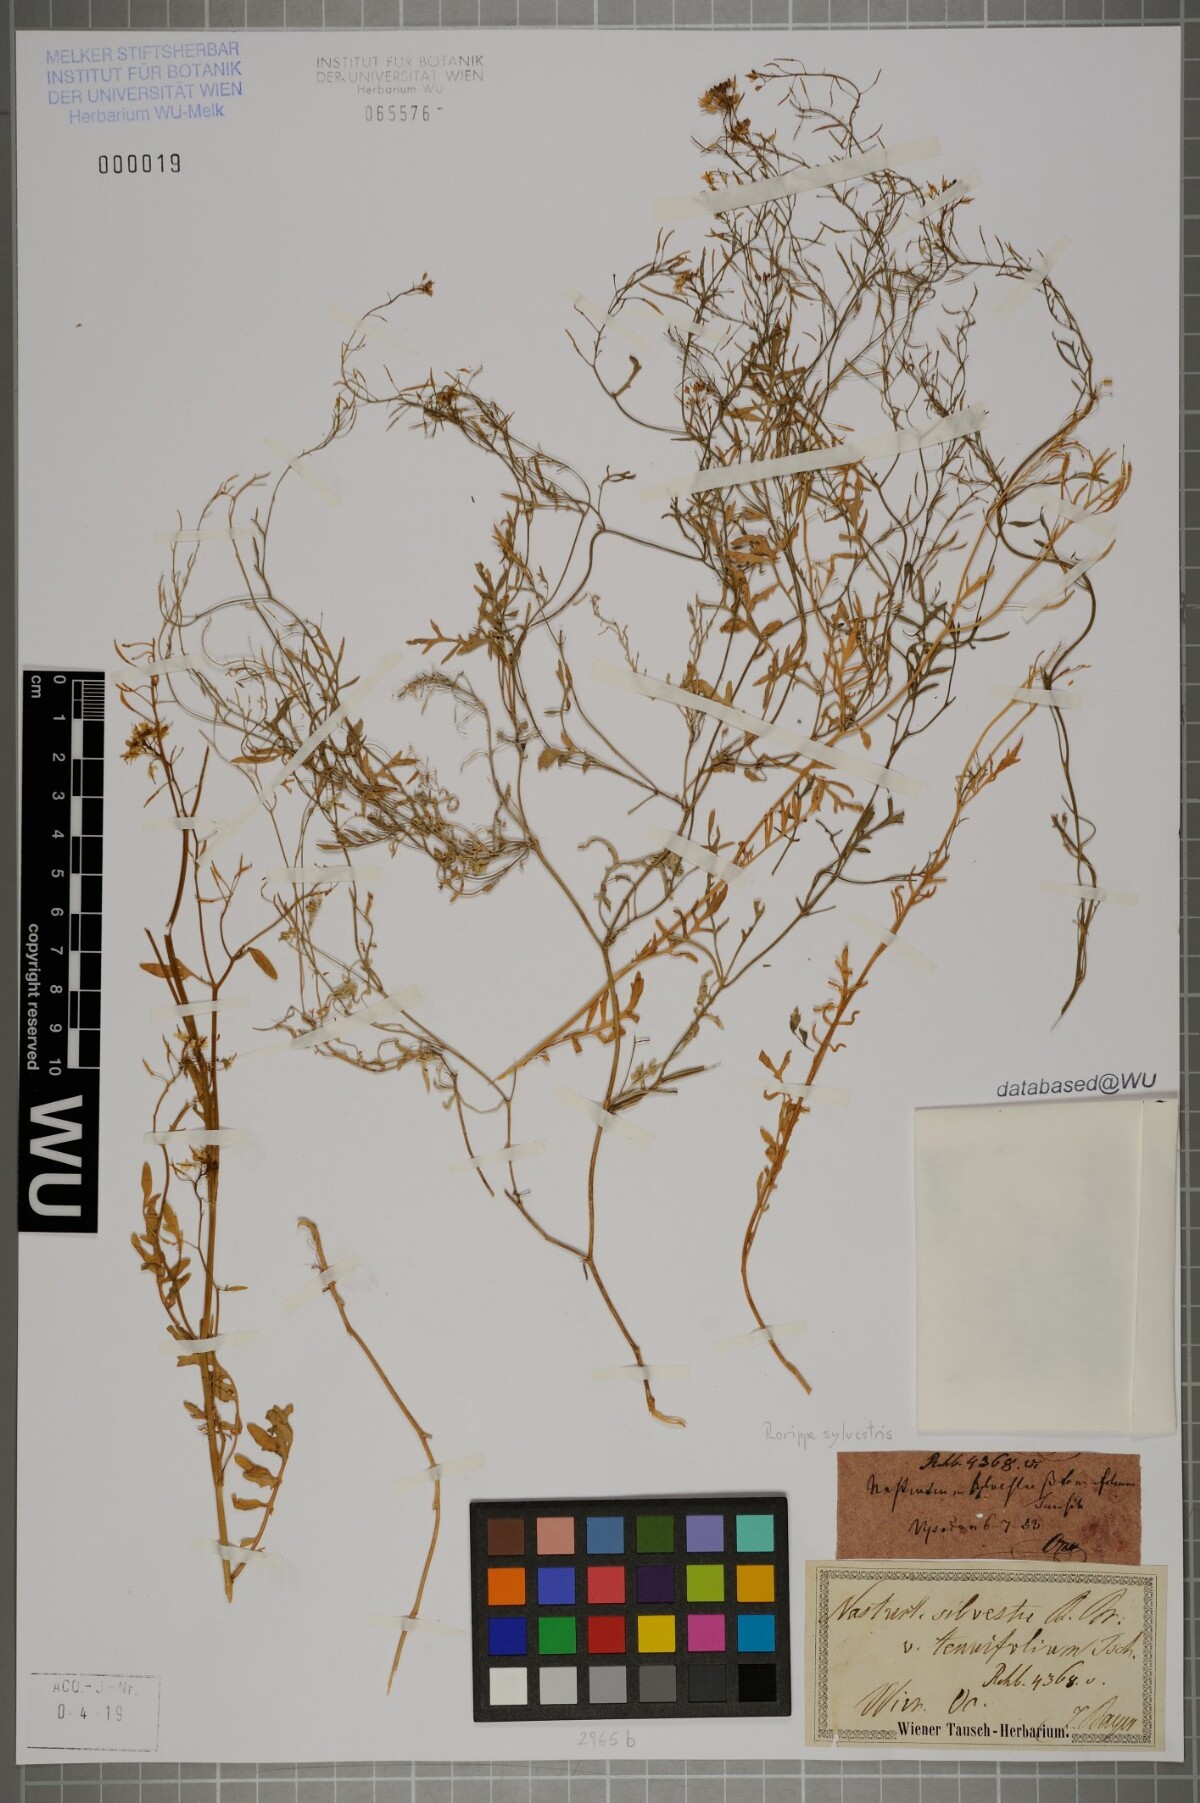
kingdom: Plantae
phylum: Tracheophyta
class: Magnoliopsida
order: Brassicales
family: Brassicaceae
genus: Rorippa
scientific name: Rorippa sylvestris
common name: Creeping yellowcress
